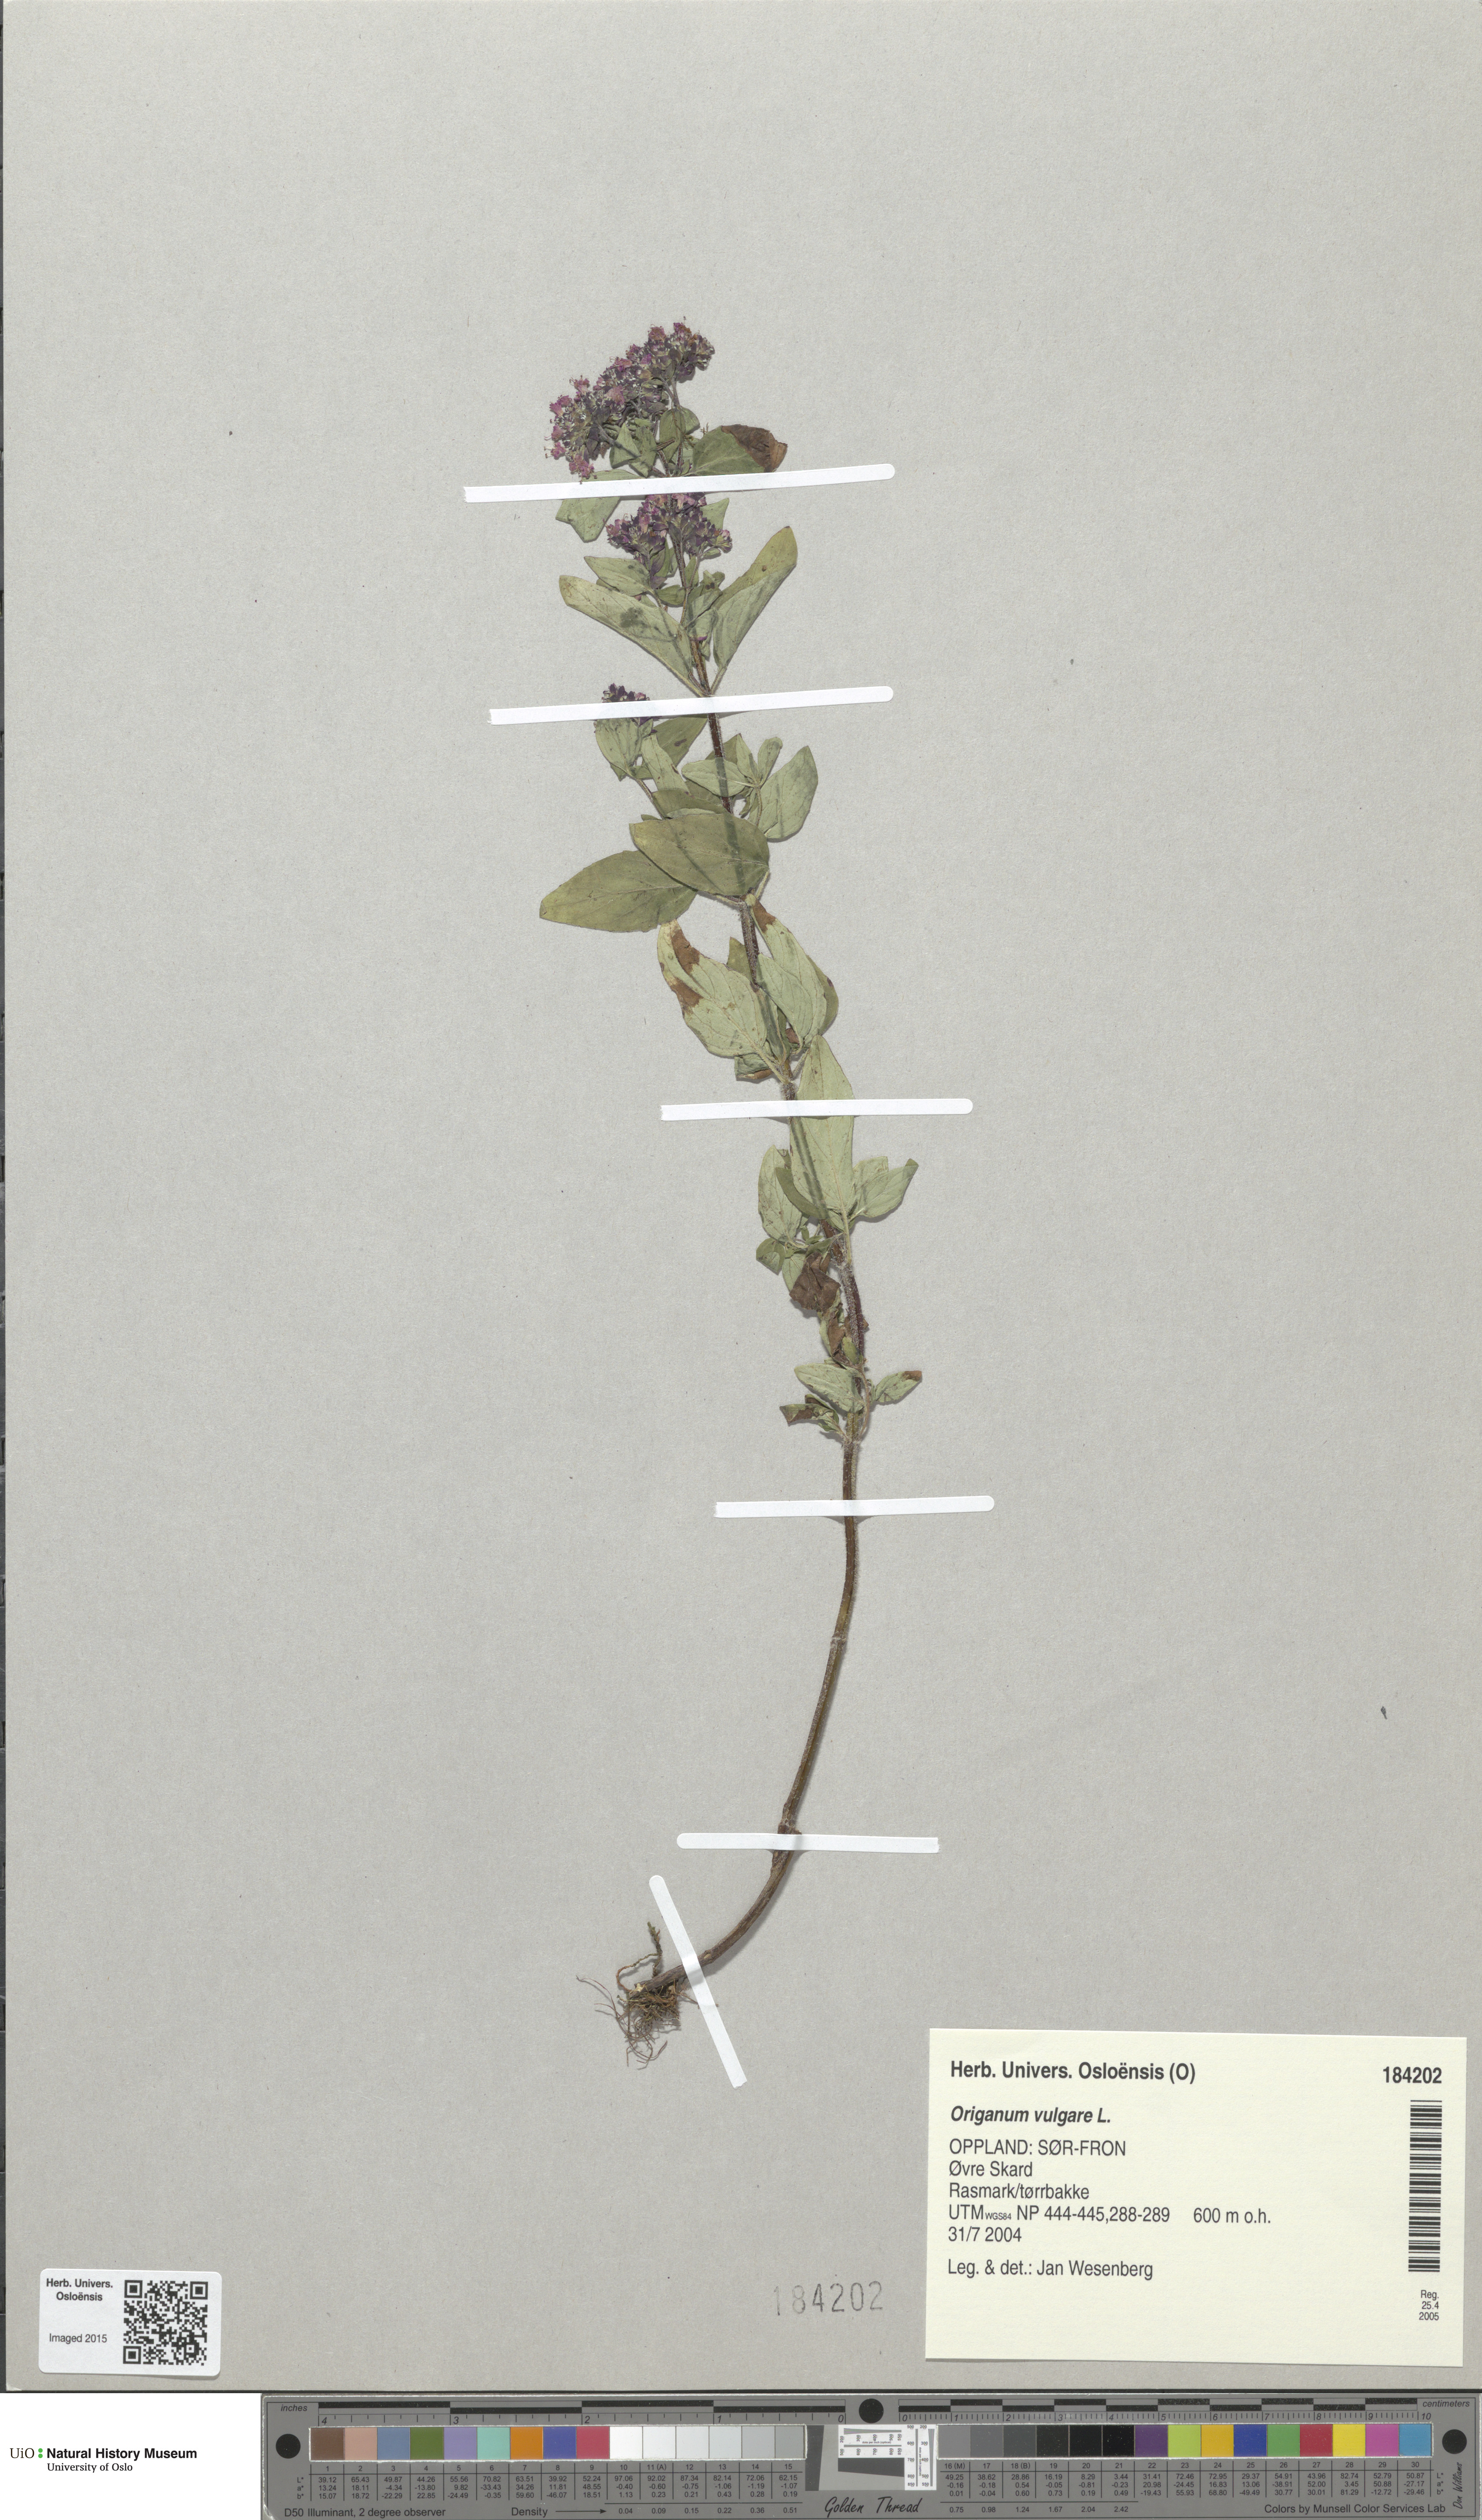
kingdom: Plantae
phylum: Tracheophyta
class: Magnoliopsida
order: Lamiales
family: Lamiaceae
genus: Origanum
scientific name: Origanum vulgare
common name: Wild marjoram
